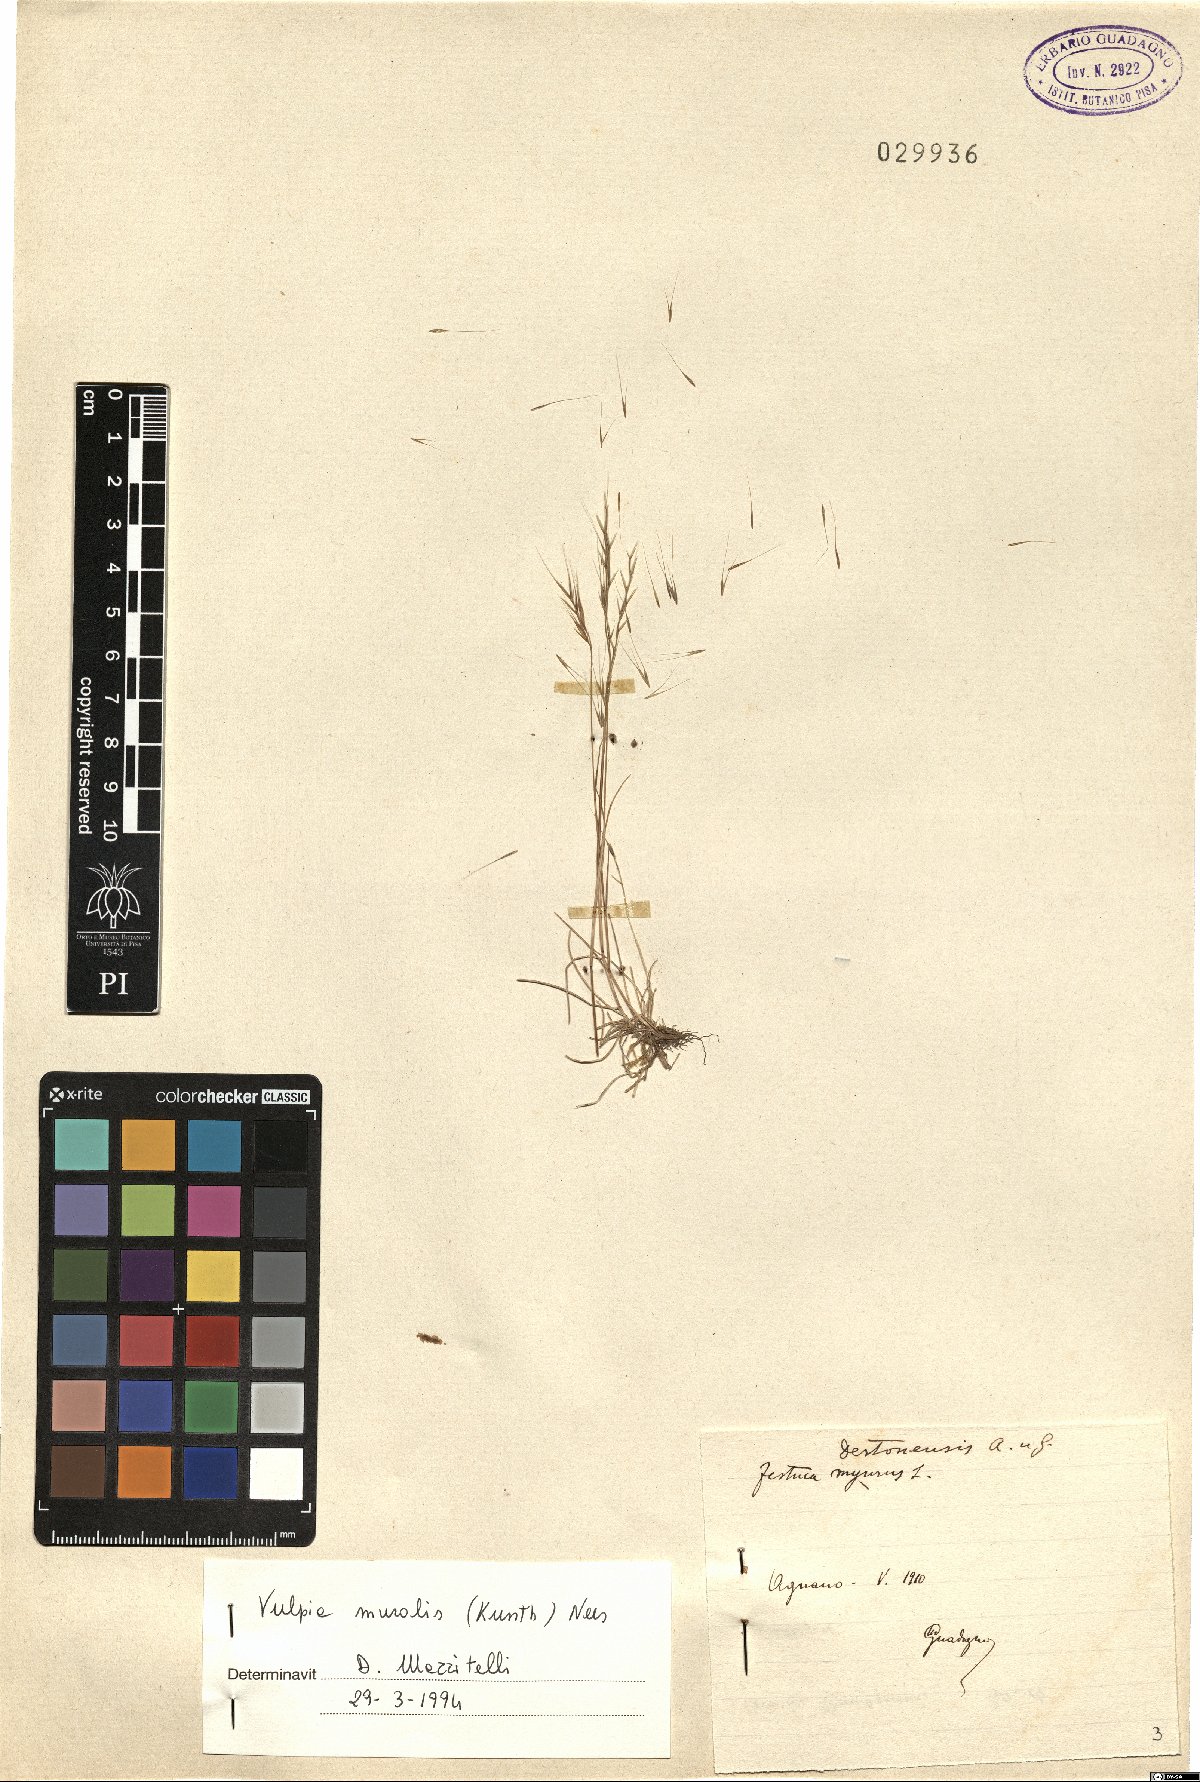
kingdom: Plantae
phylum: Tracheophyta
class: Liliopsida
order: Poales
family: Poaceae
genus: Festuca
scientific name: Festuca muralis
